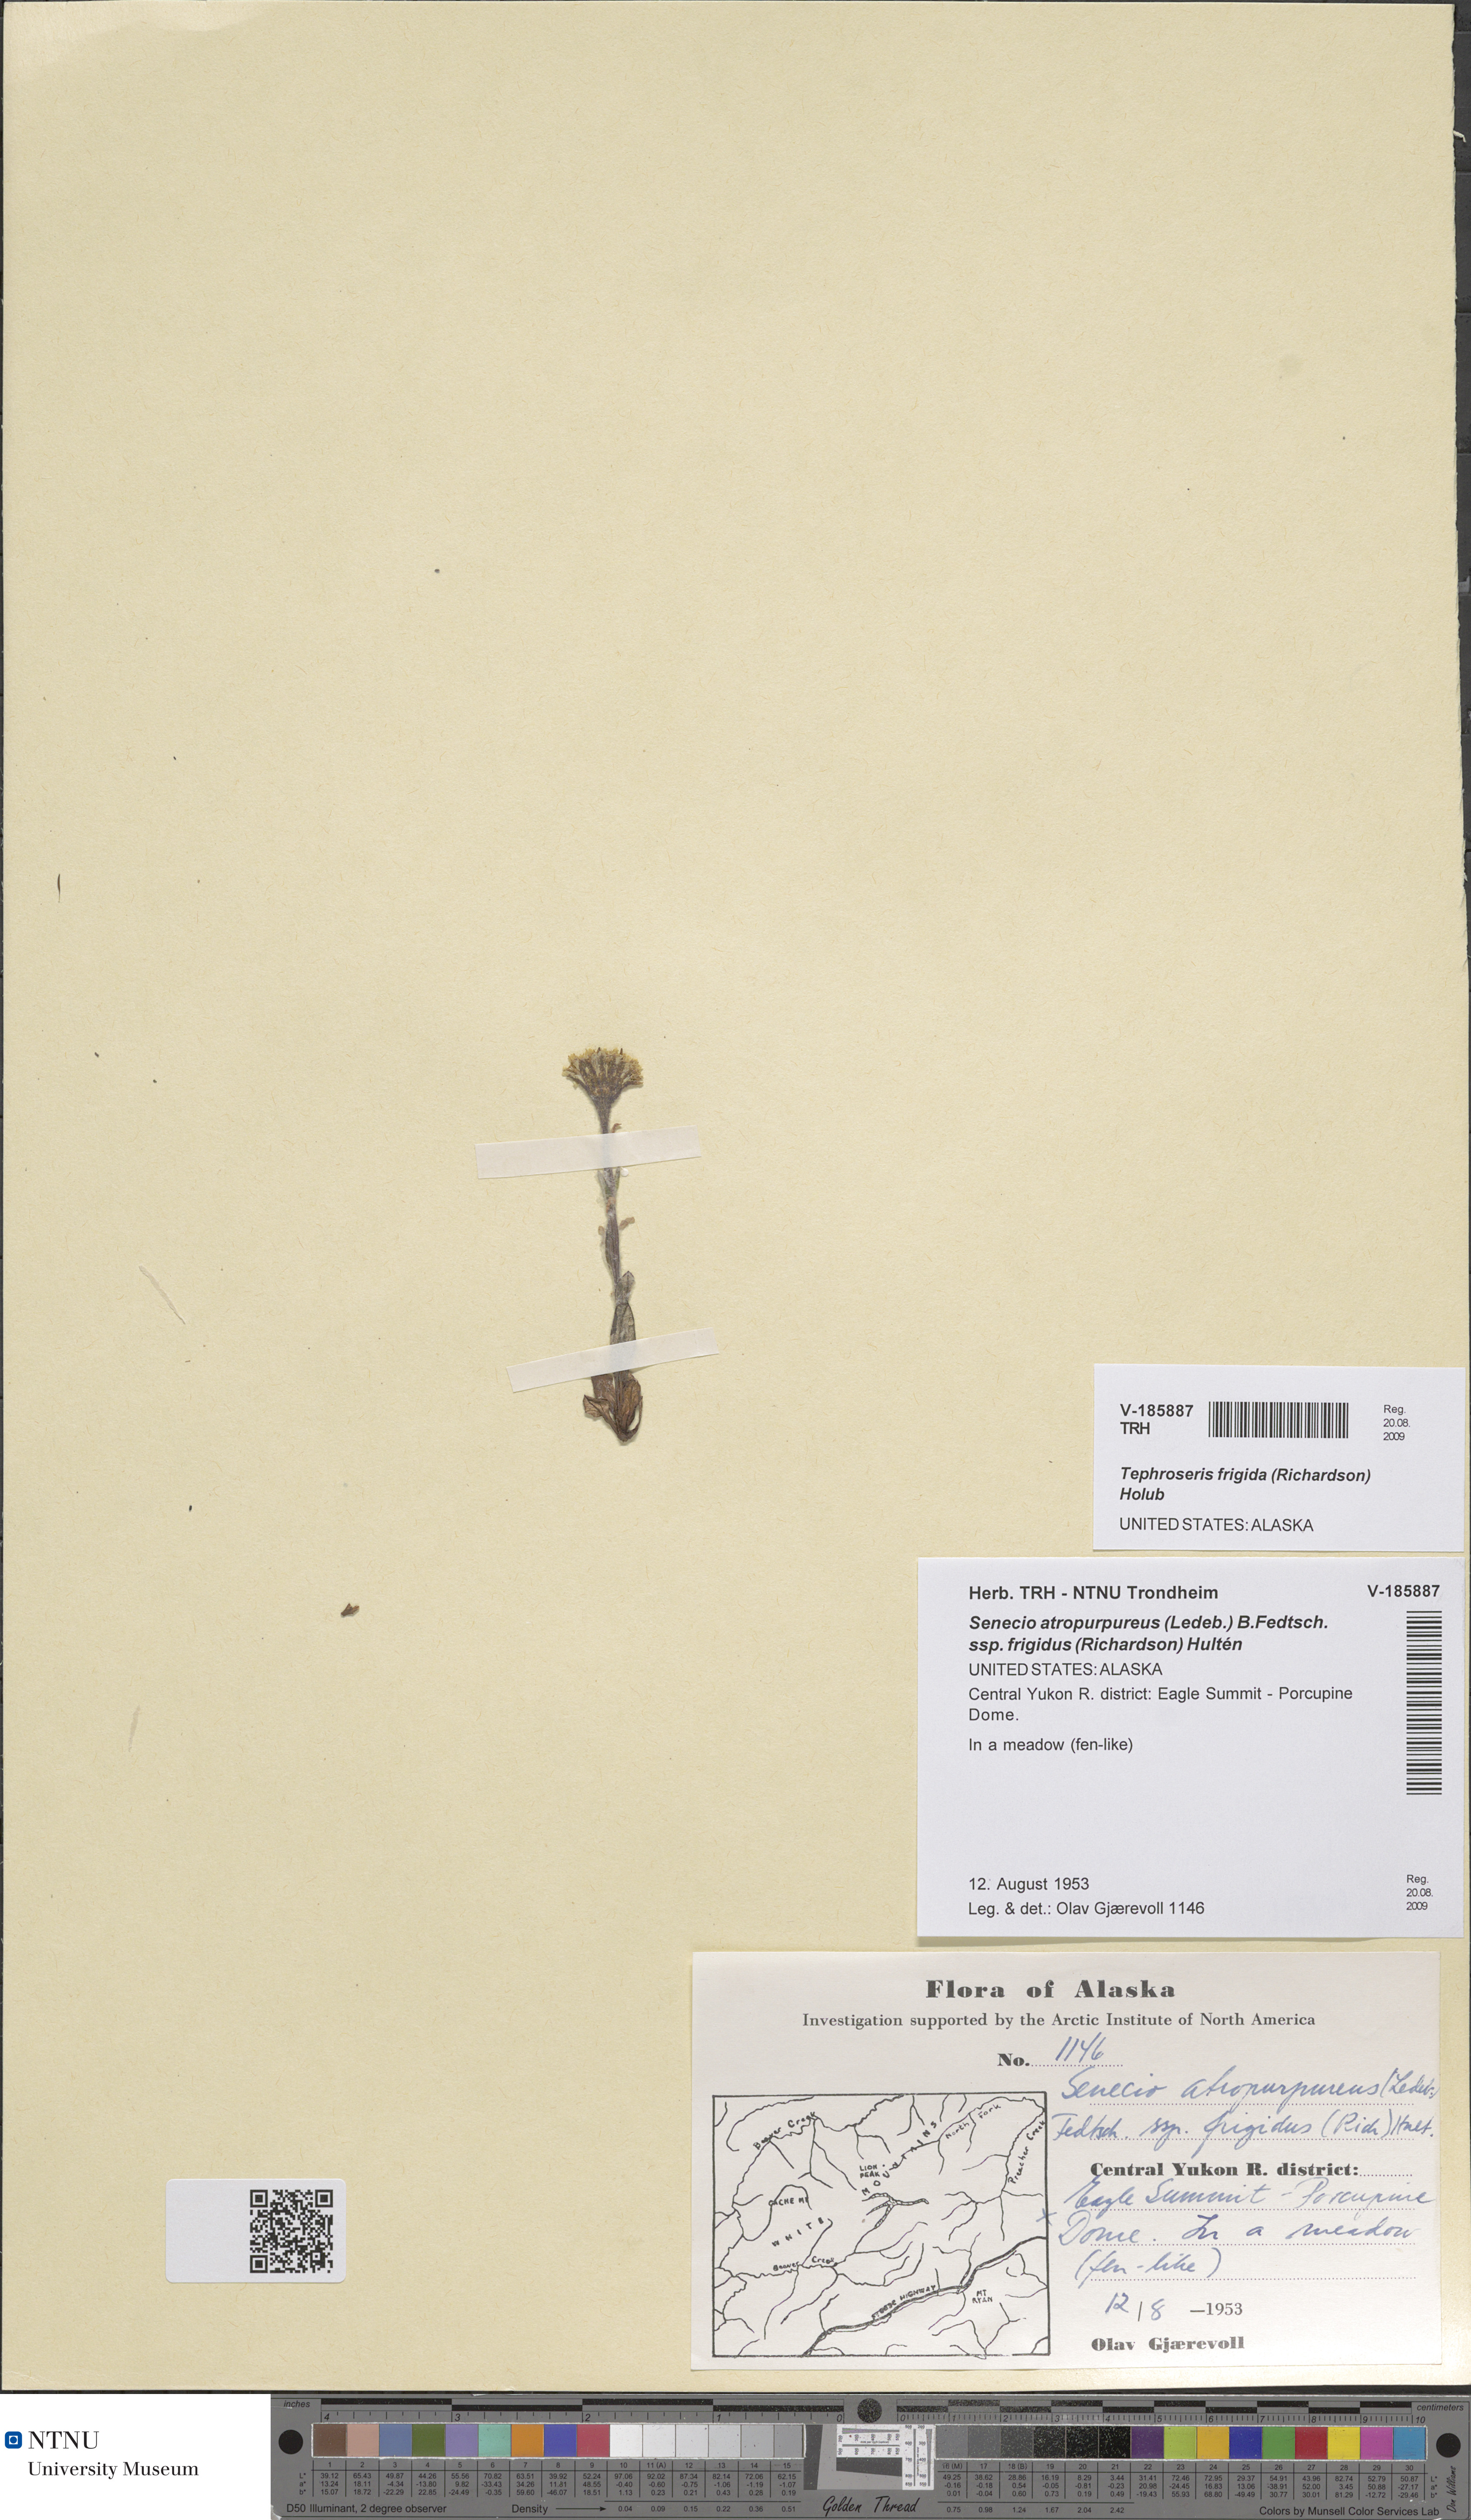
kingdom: Plantae
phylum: Tracheophyta
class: Magnoliopsida
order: Asterales
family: Asteraceae
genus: Tephroseris
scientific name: Tephroseris frigida
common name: Arctic groundsel
